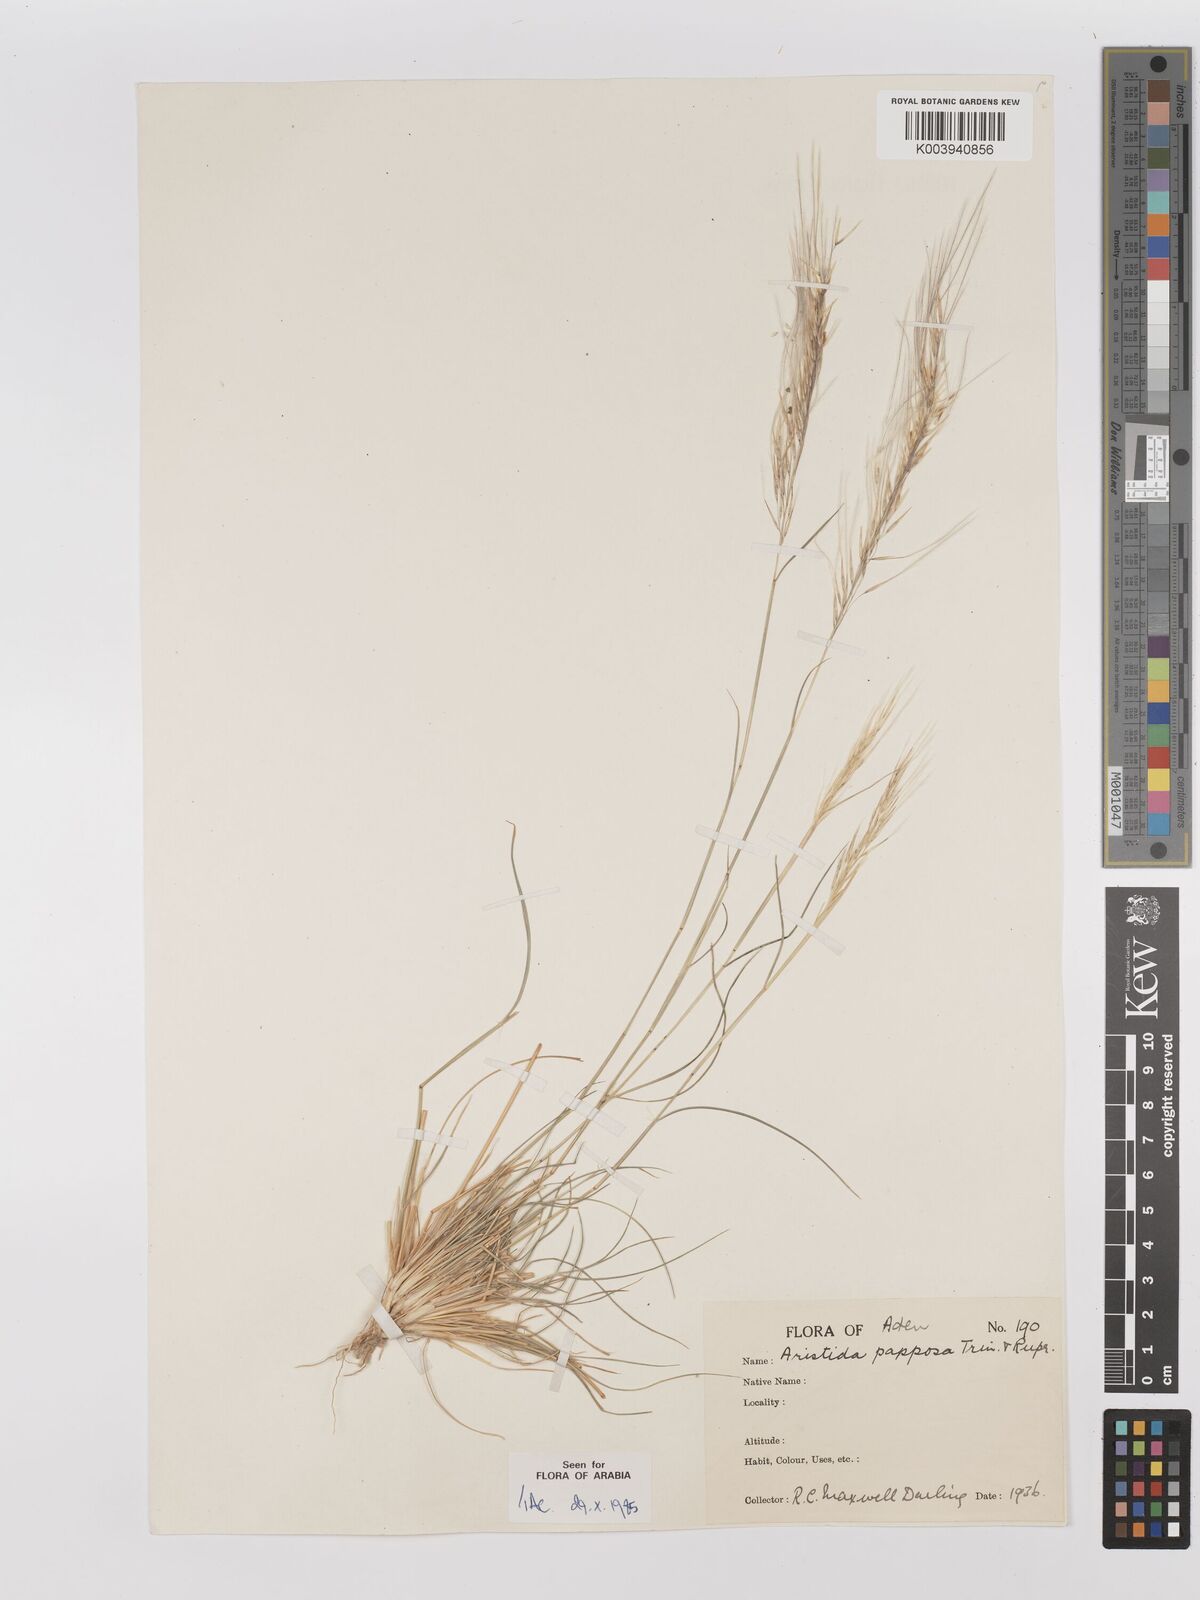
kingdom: Plantae
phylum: Tracheophyta
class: Liliopsida
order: Poales
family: Poaceae
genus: Stipagrostis
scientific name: Stipagrostis uniplumis
